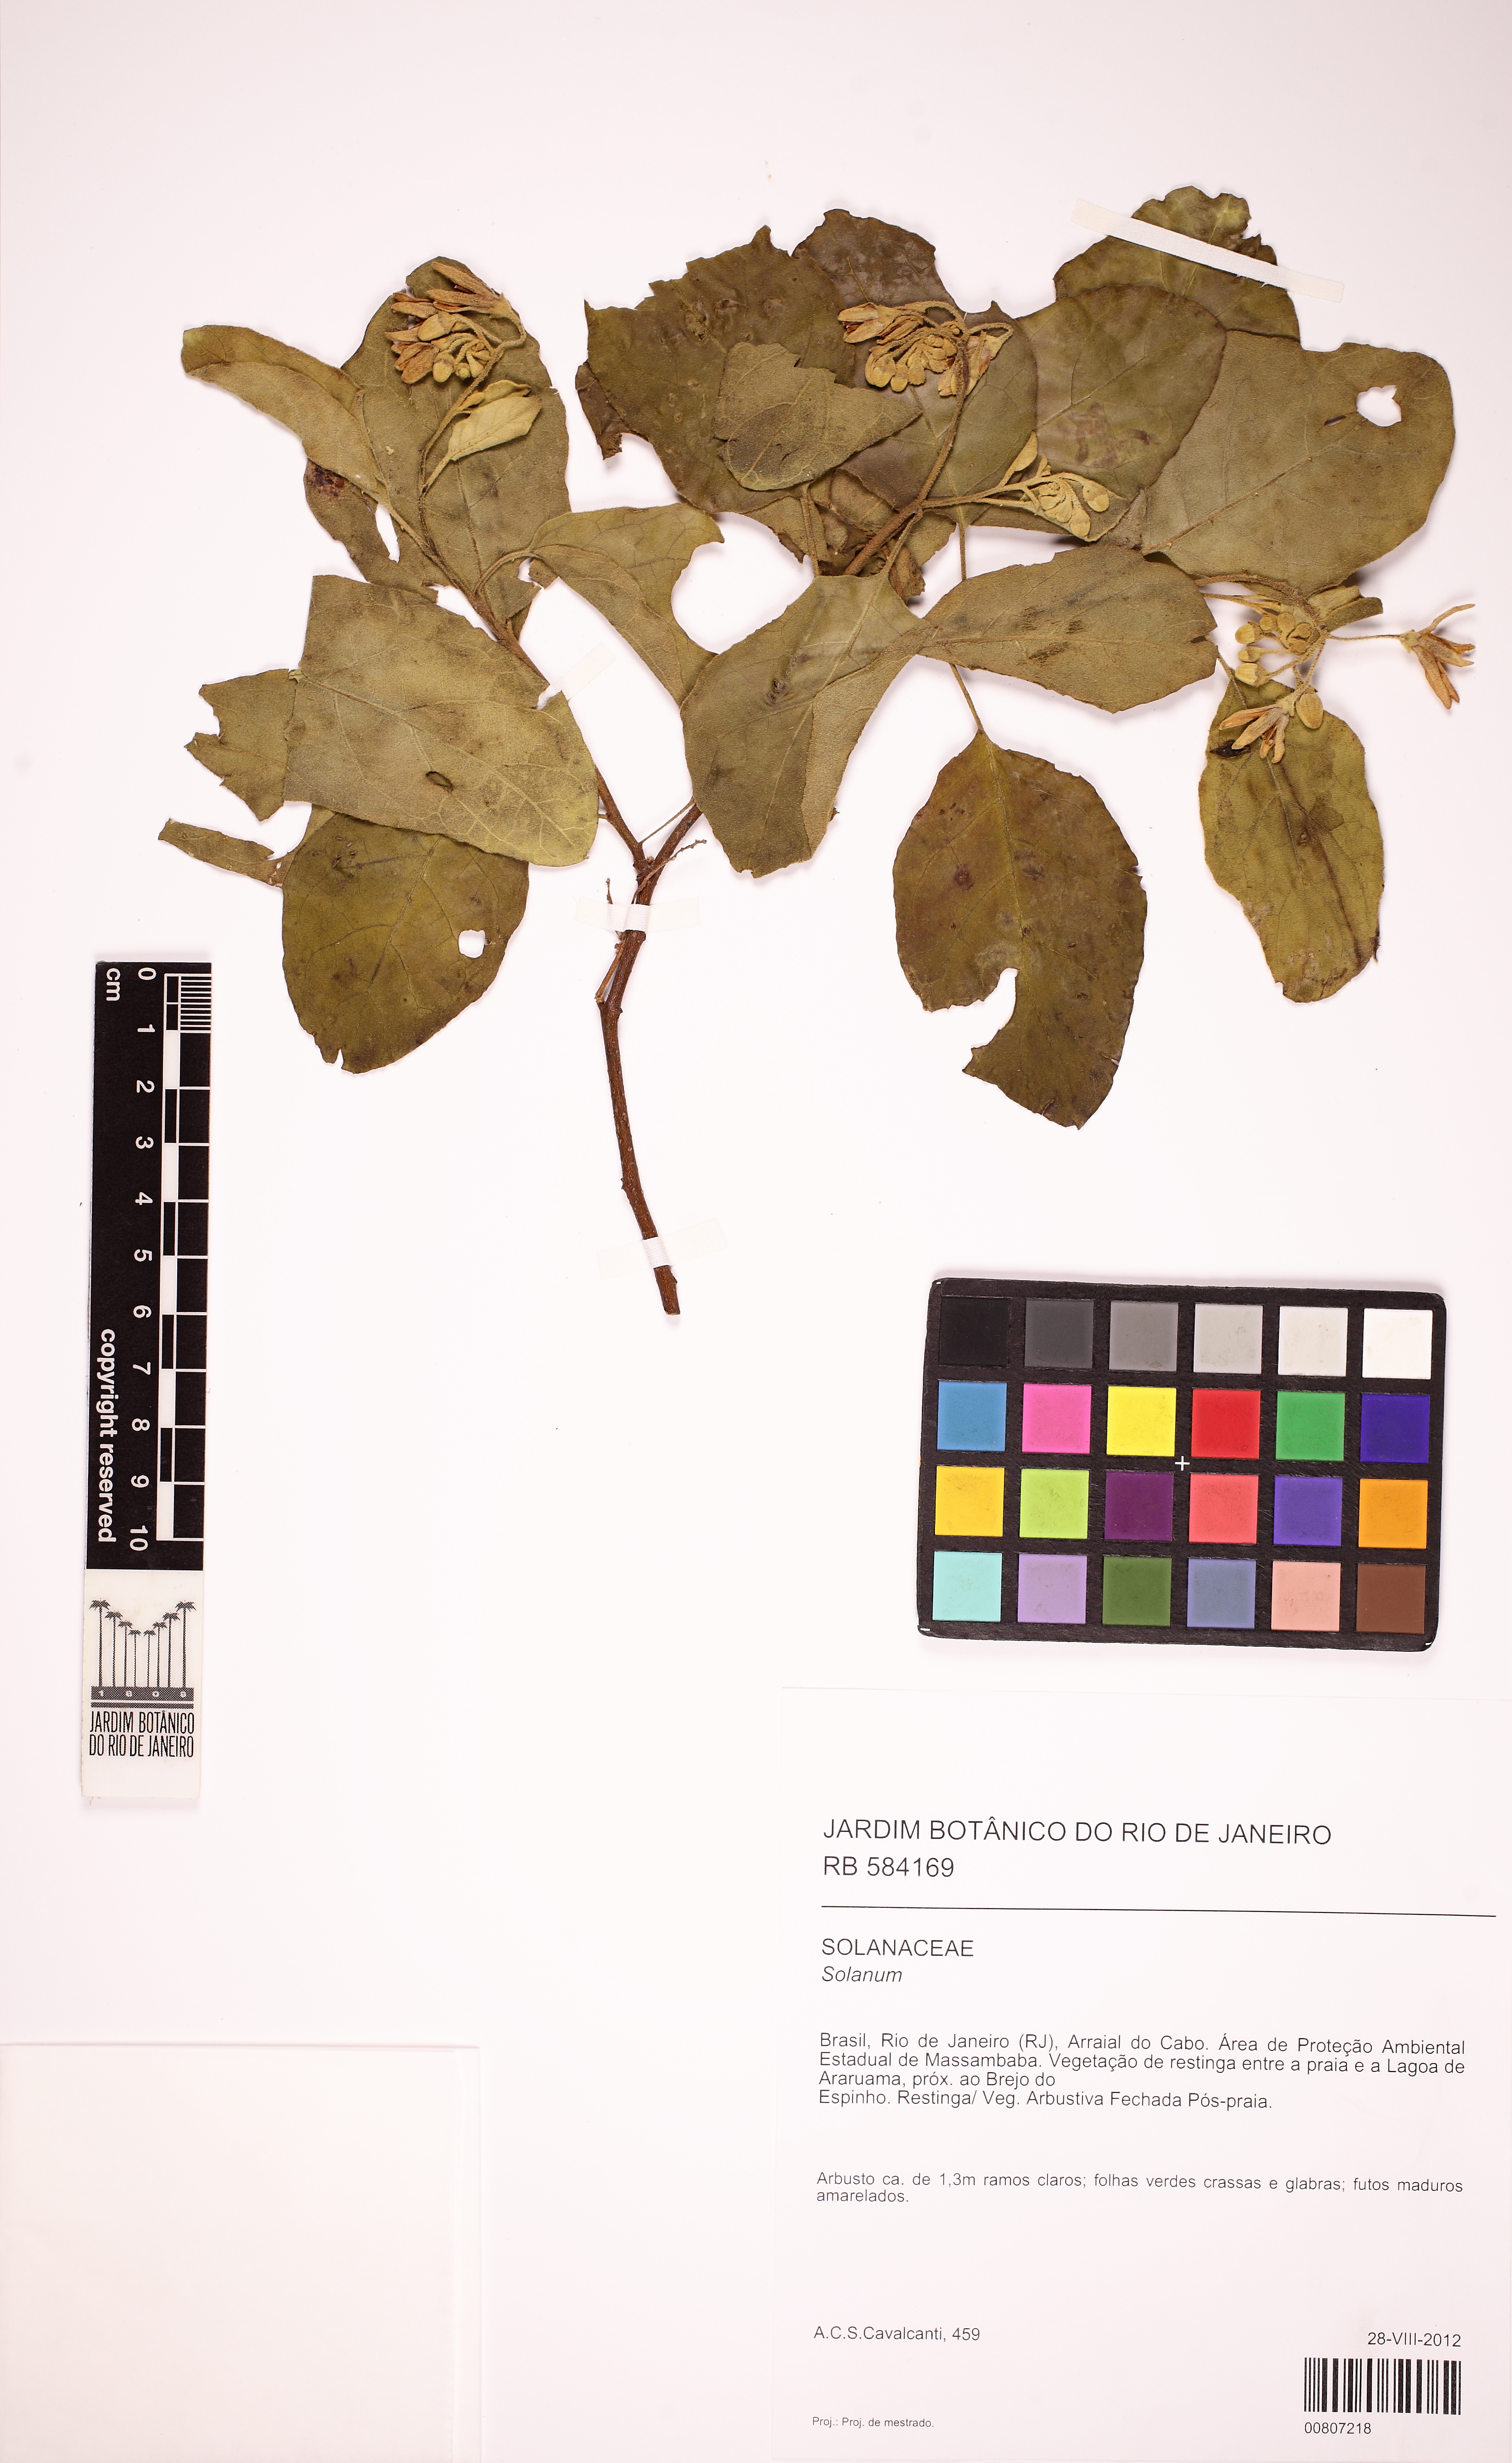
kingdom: Plantae
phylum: Tracheophyta
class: Magnoliopsida
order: Solanales
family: Solanaceae
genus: Solanum
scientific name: Solanum
